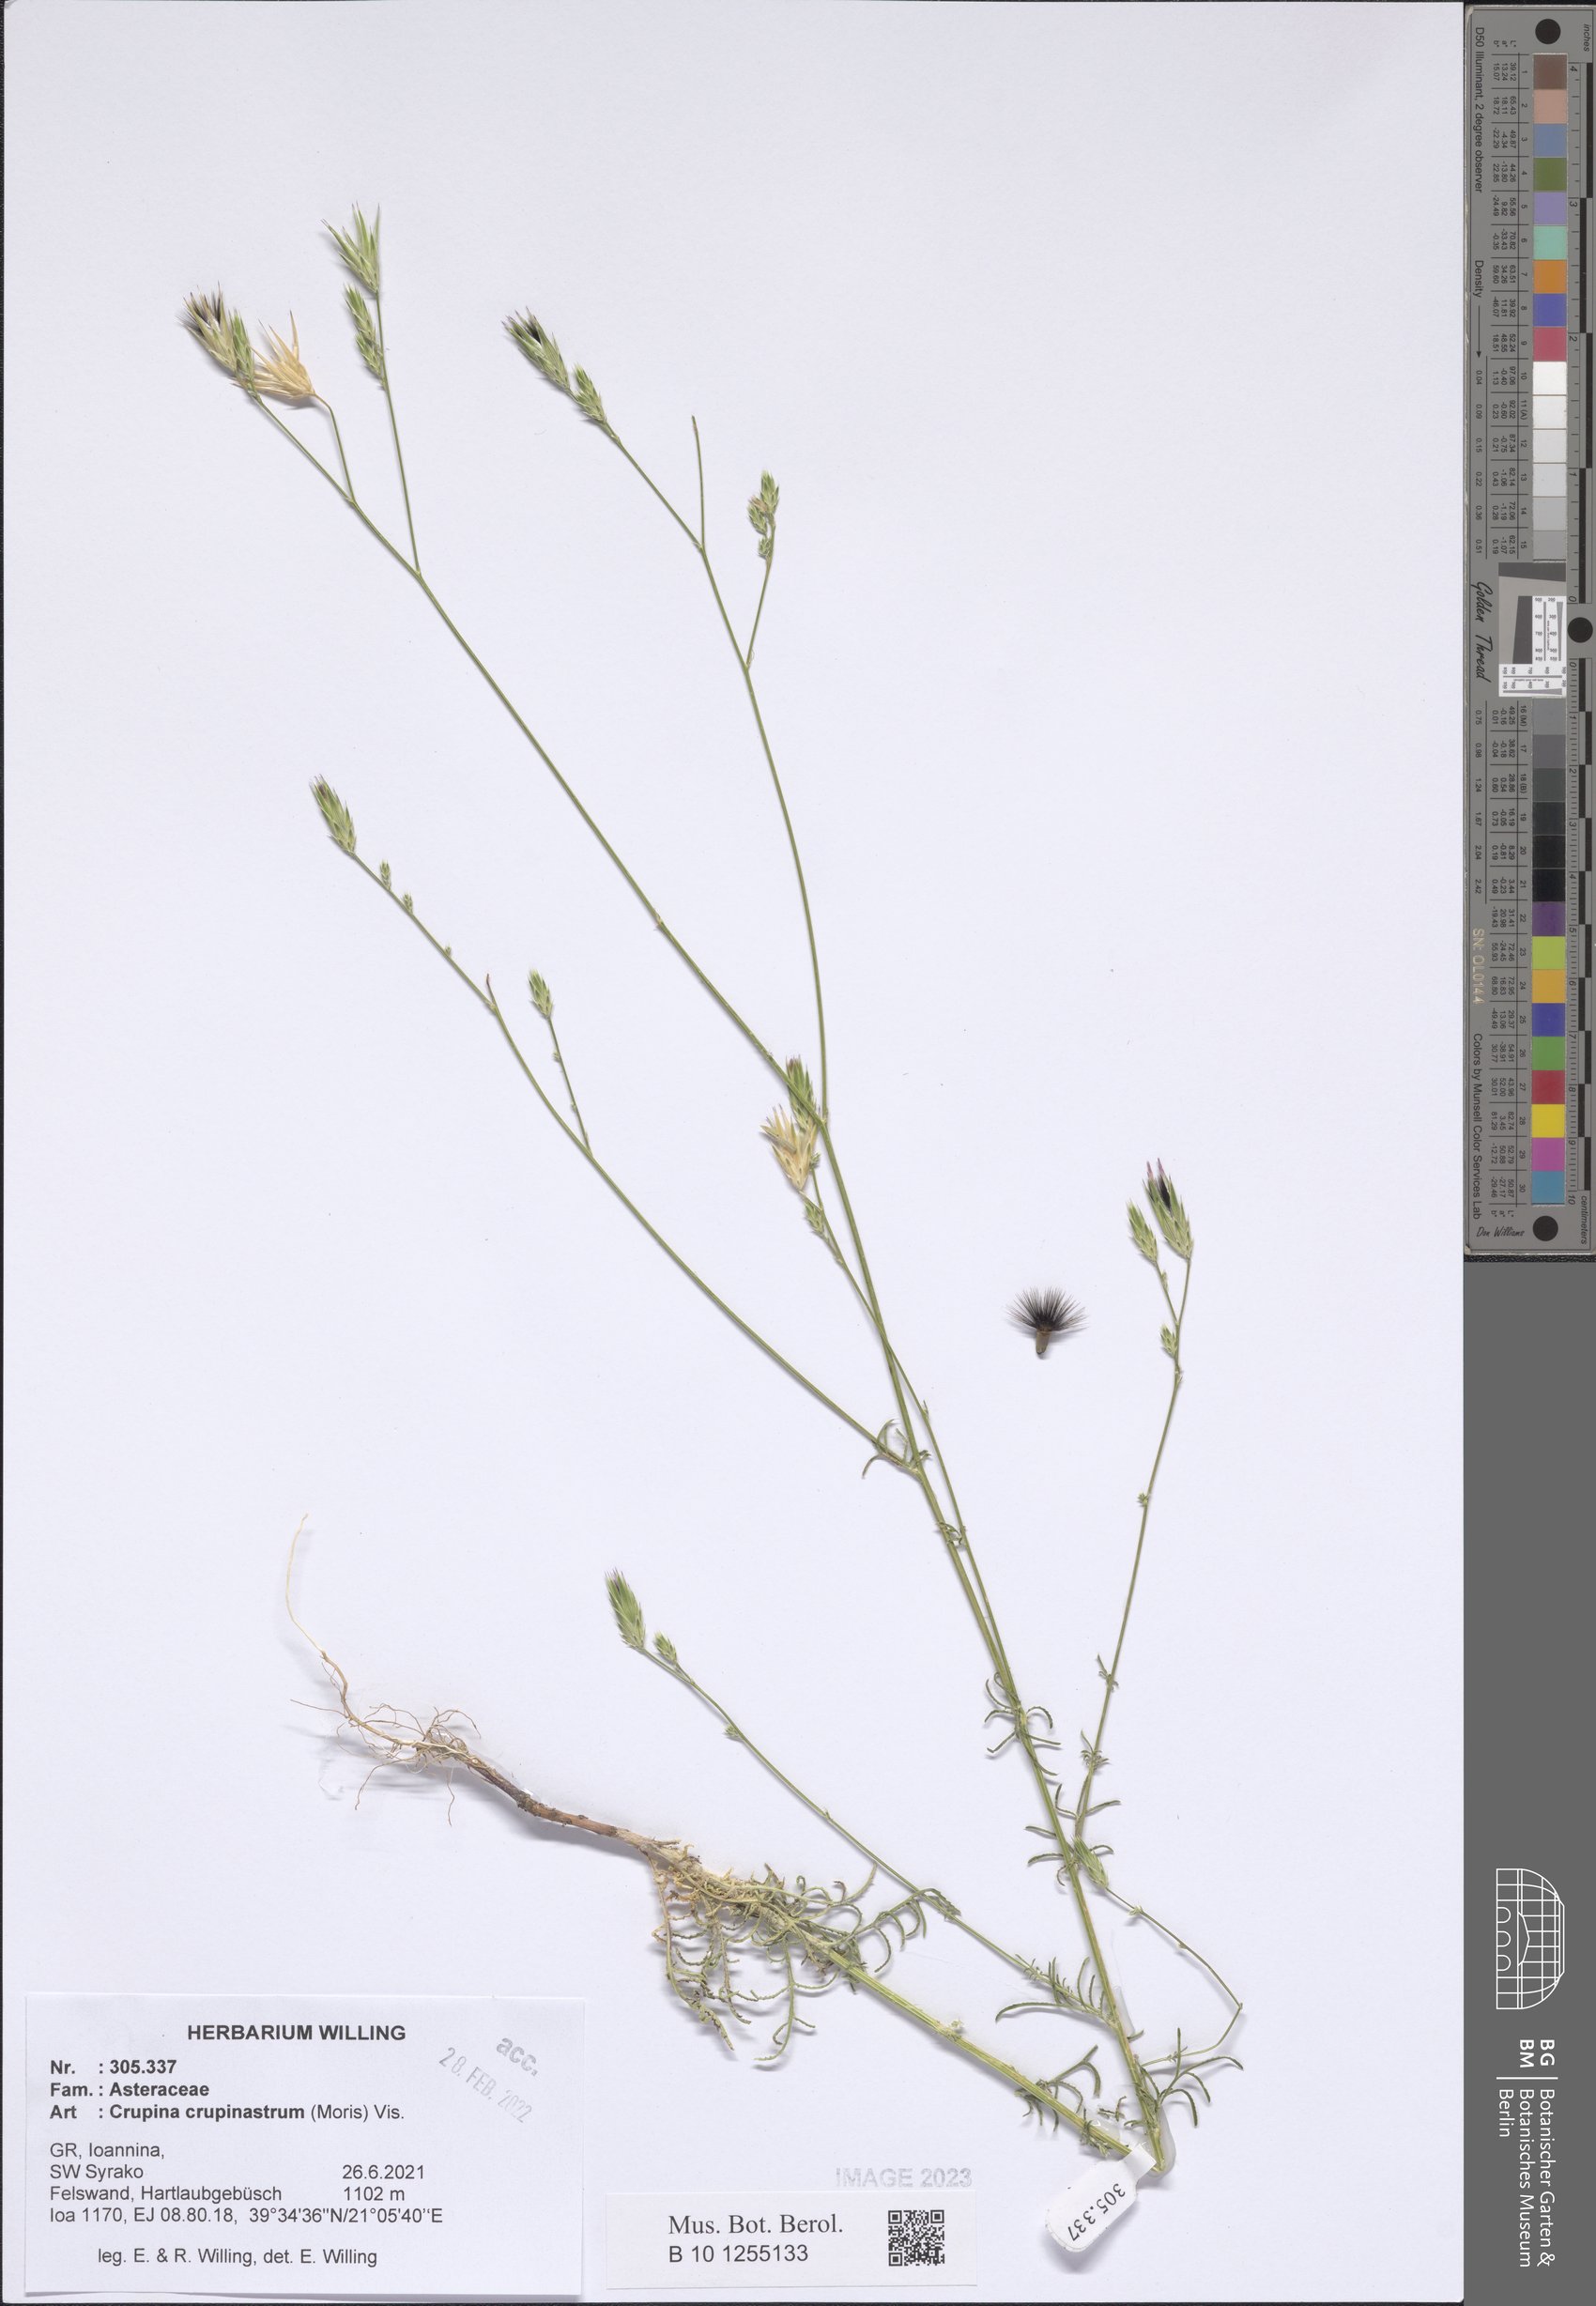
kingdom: Plantae
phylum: Tracheophyta
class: Magnoliopsida
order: Asterales
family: Asteraceae
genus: Crupina
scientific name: Crupina crupinastrum
